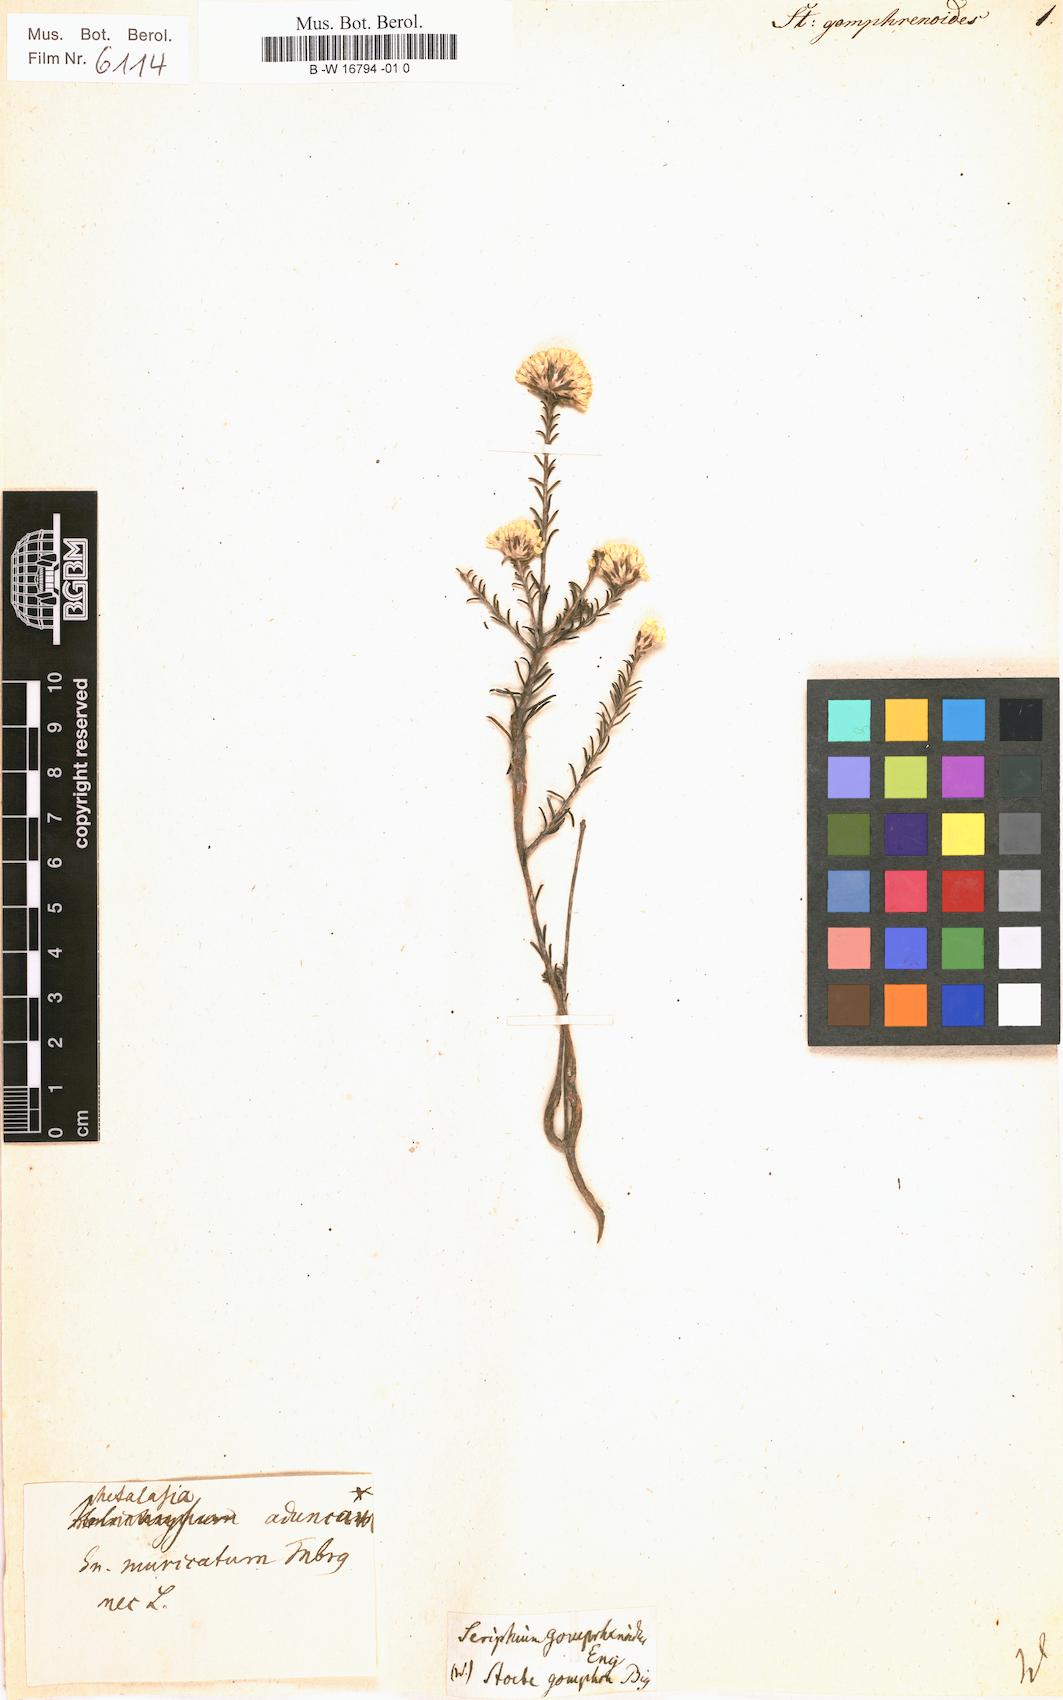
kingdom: Plantae
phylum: Tracheophyta
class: Magnoliopsida
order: Asterales
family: Asteraceae
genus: Stoebe
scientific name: Stoebe gomphrenoides
